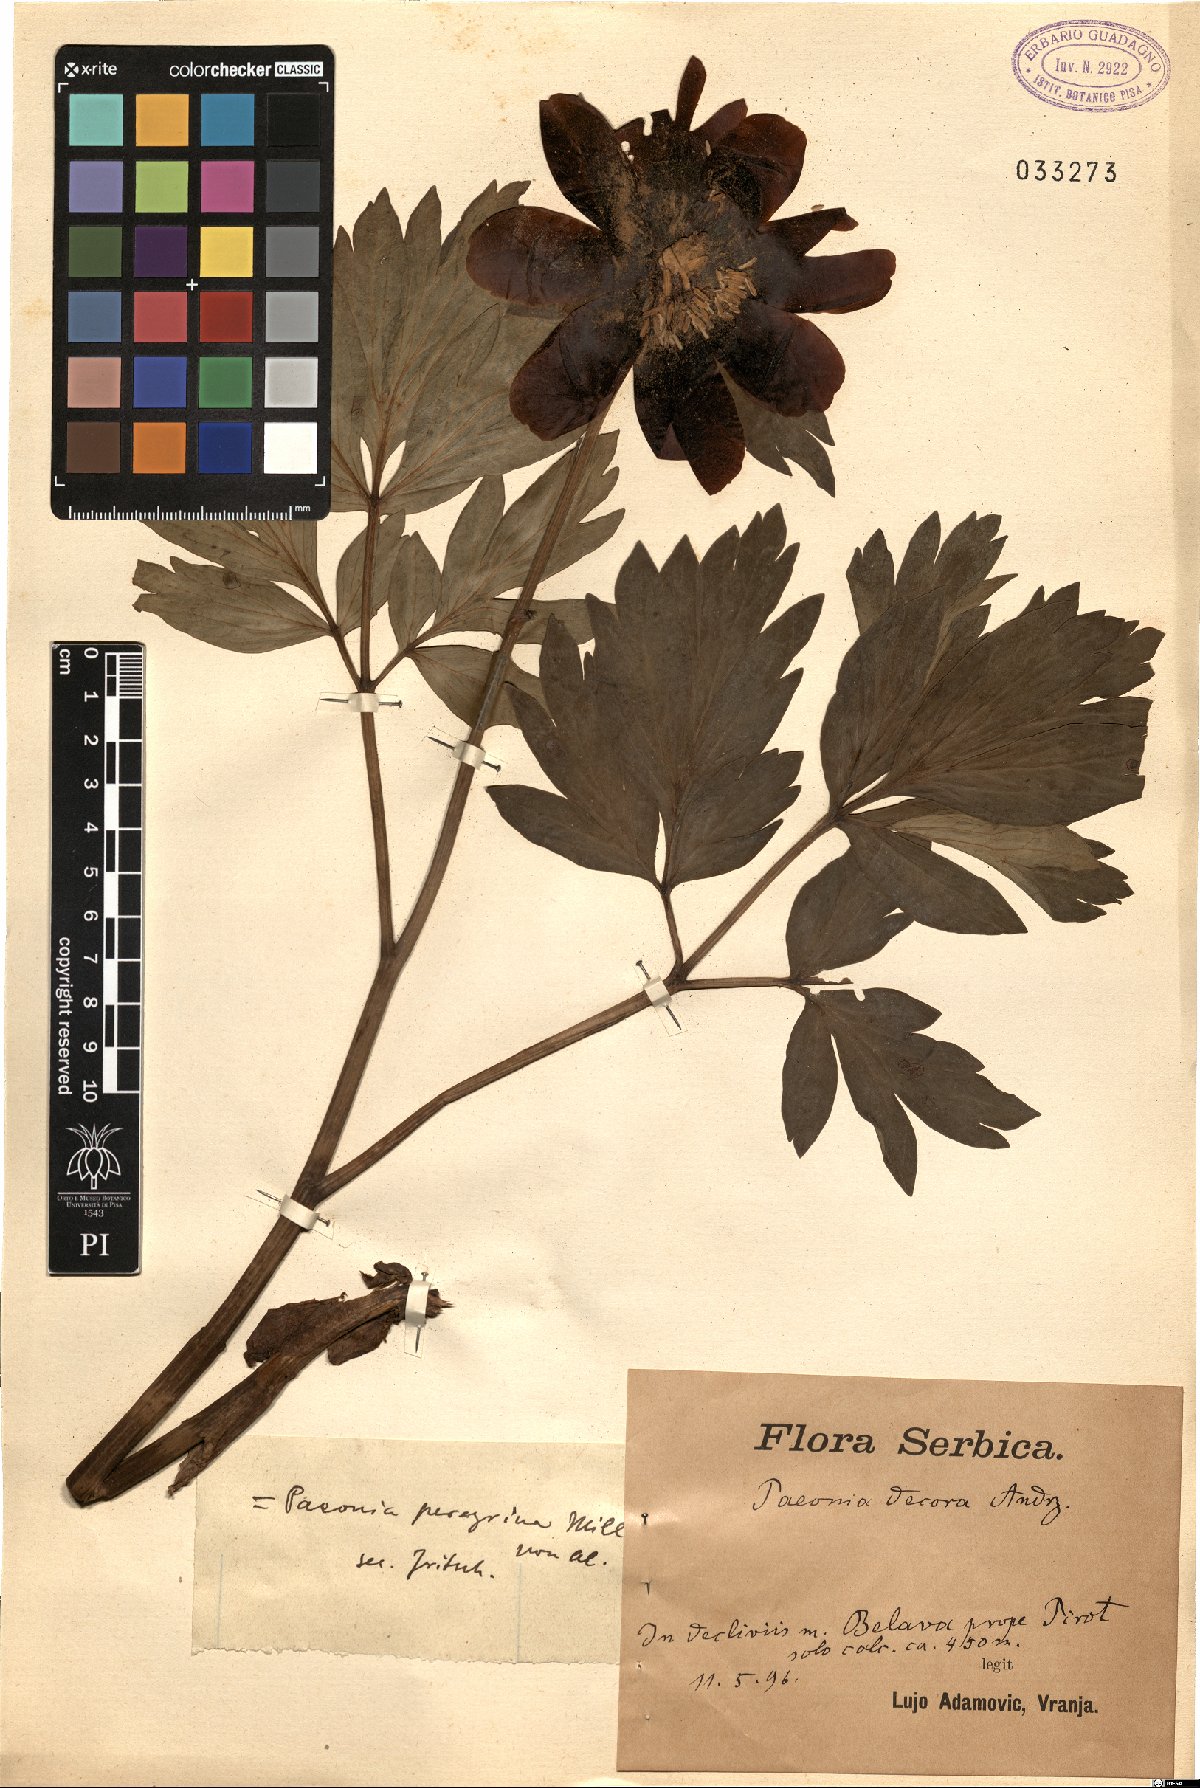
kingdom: Plantae
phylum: Tracheophyta
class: Magnoliopsida
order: Saxifragales
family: Paeoniaceae
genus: Paeonia
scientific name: Paeonia peregrina
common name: Scarlet peony
